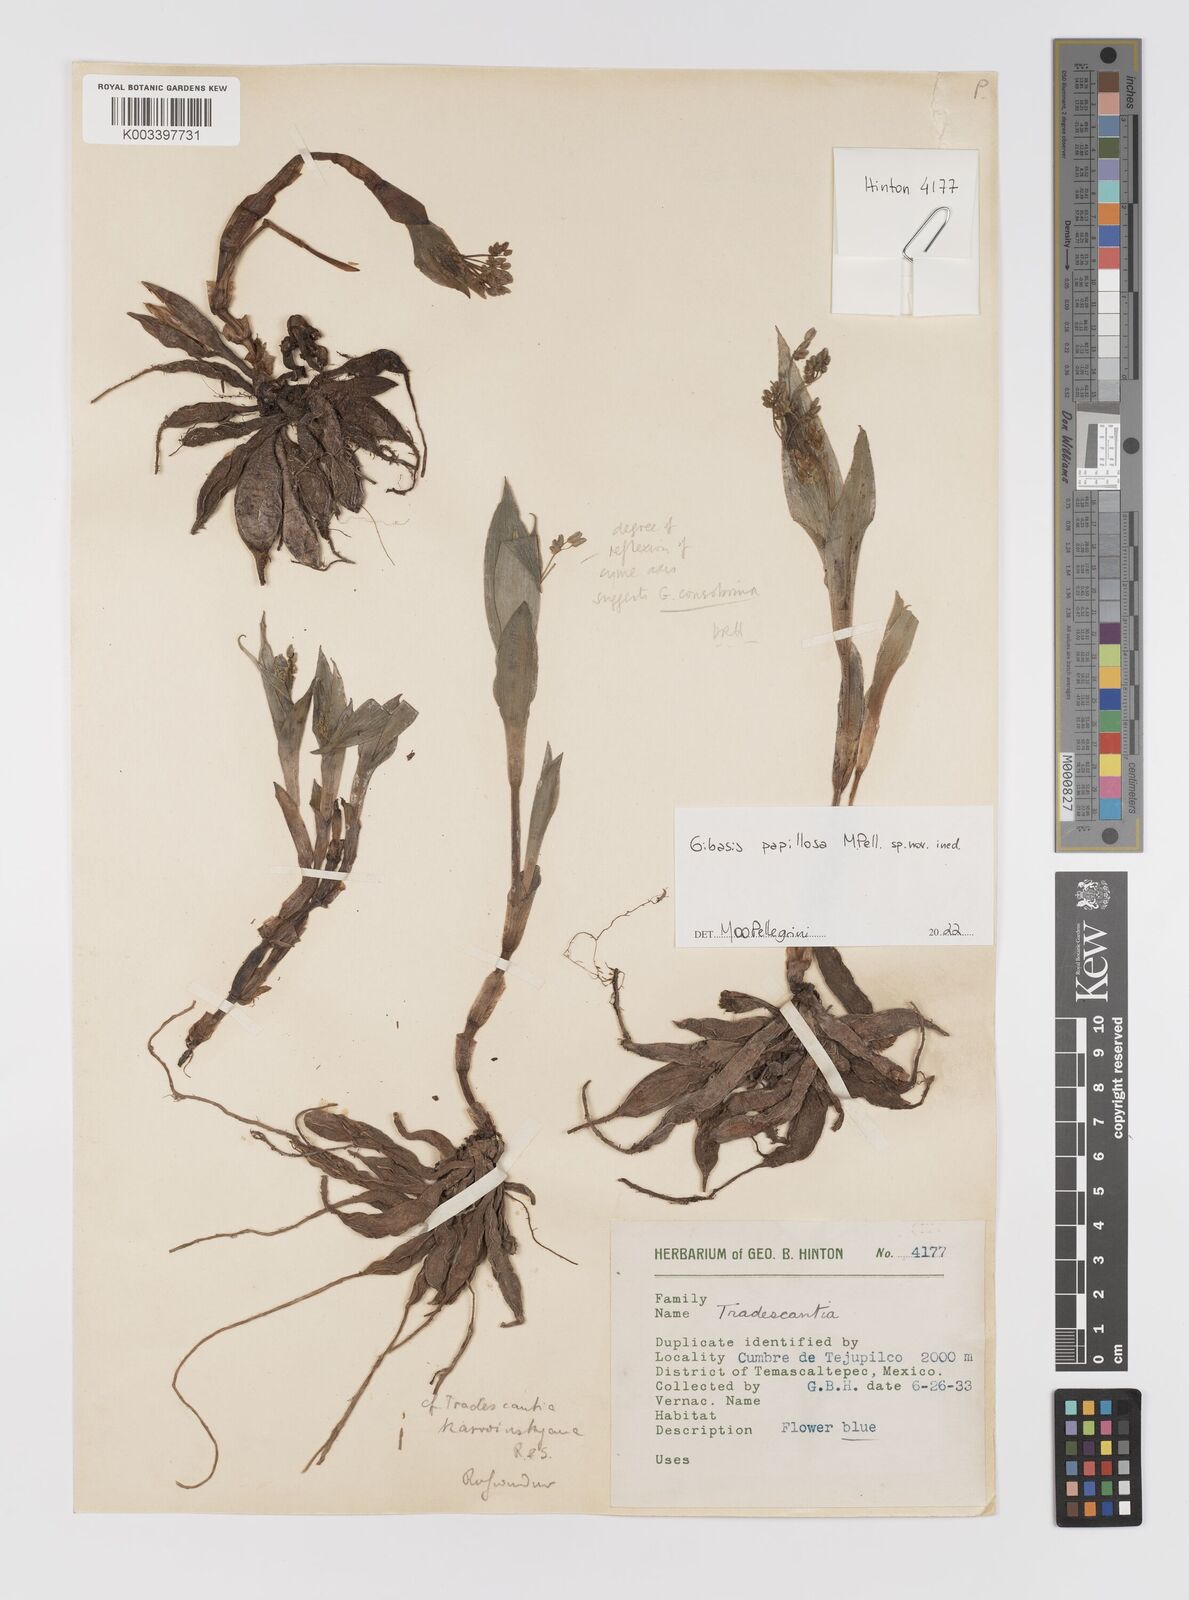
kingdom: Plantae
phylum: Tracheophyta
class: Liliopsida
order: Commelinales
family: Commelinaceae
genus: Gibasis
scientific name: Gibasis
